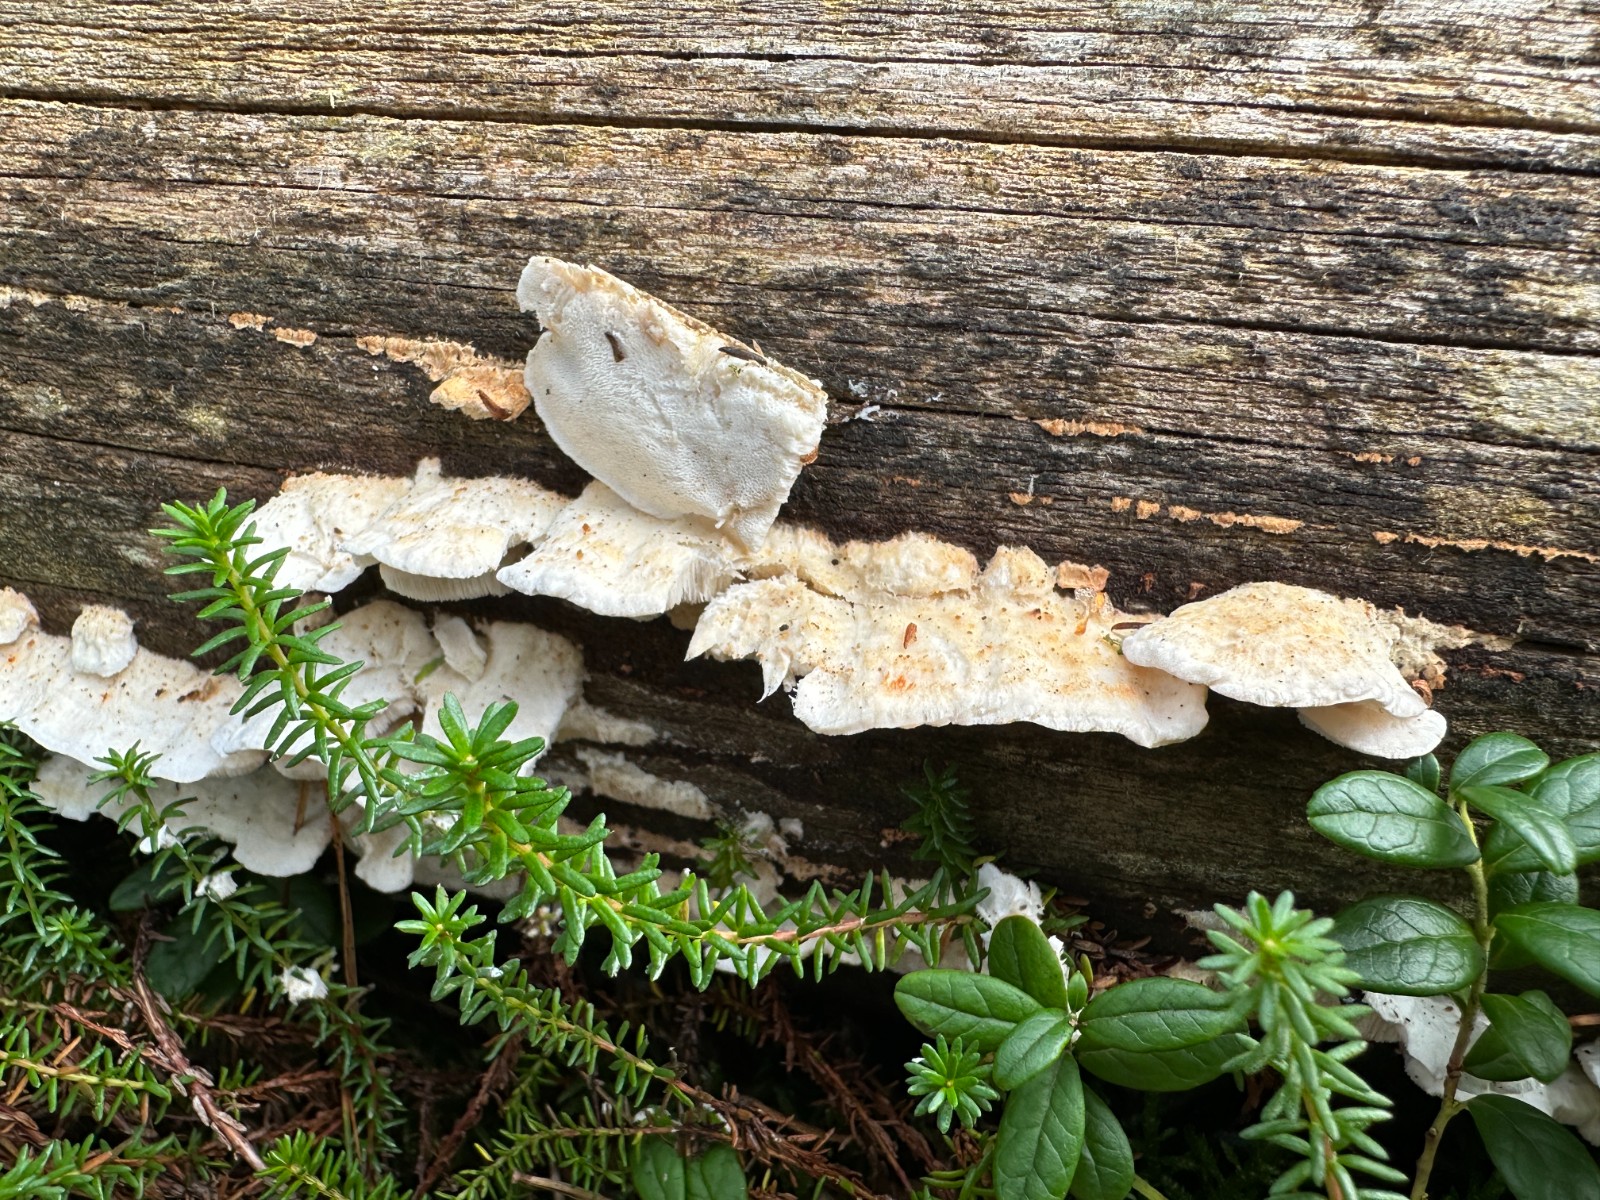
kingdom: Fungi
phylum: Basidiomycota
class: Agaricomycetes
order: Polyporales
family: Incrustoporiaceae
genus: Skeletocutis
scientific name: Skeletocutis amorpha
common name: orange krystalporesvamp
